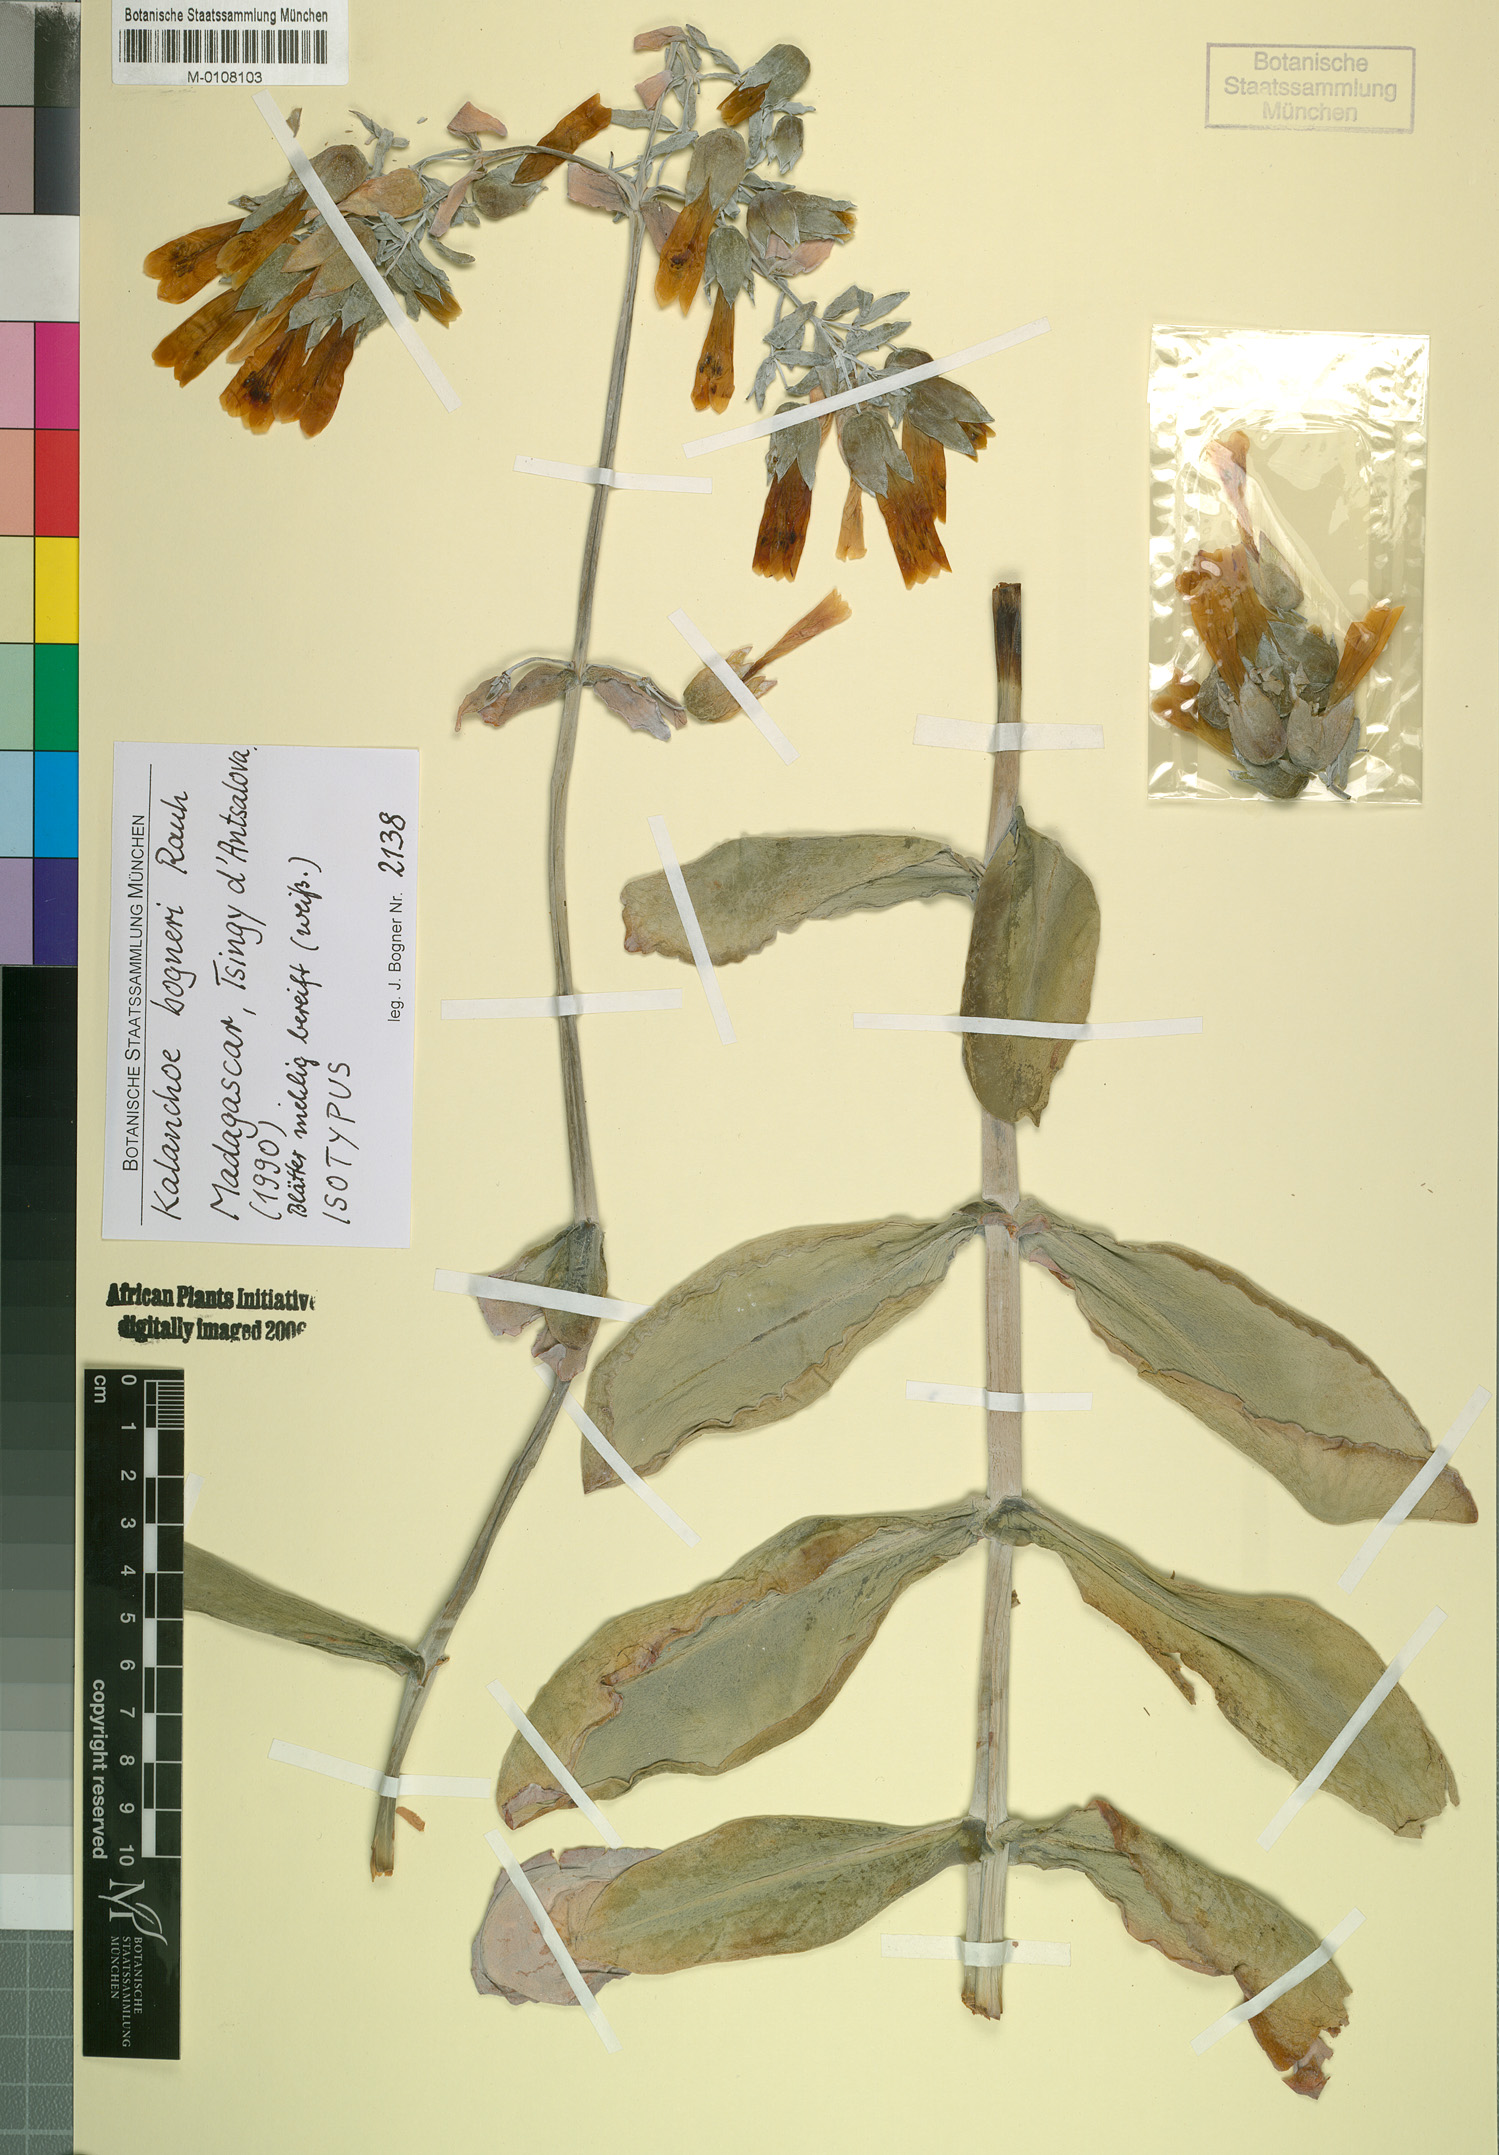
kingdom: Plantae
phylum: Tracheophyta
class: Magnoliopsida
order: Saxifragales
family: Crassulaceae
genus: Kalanchoe
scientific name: Kalanchoe bogneri
